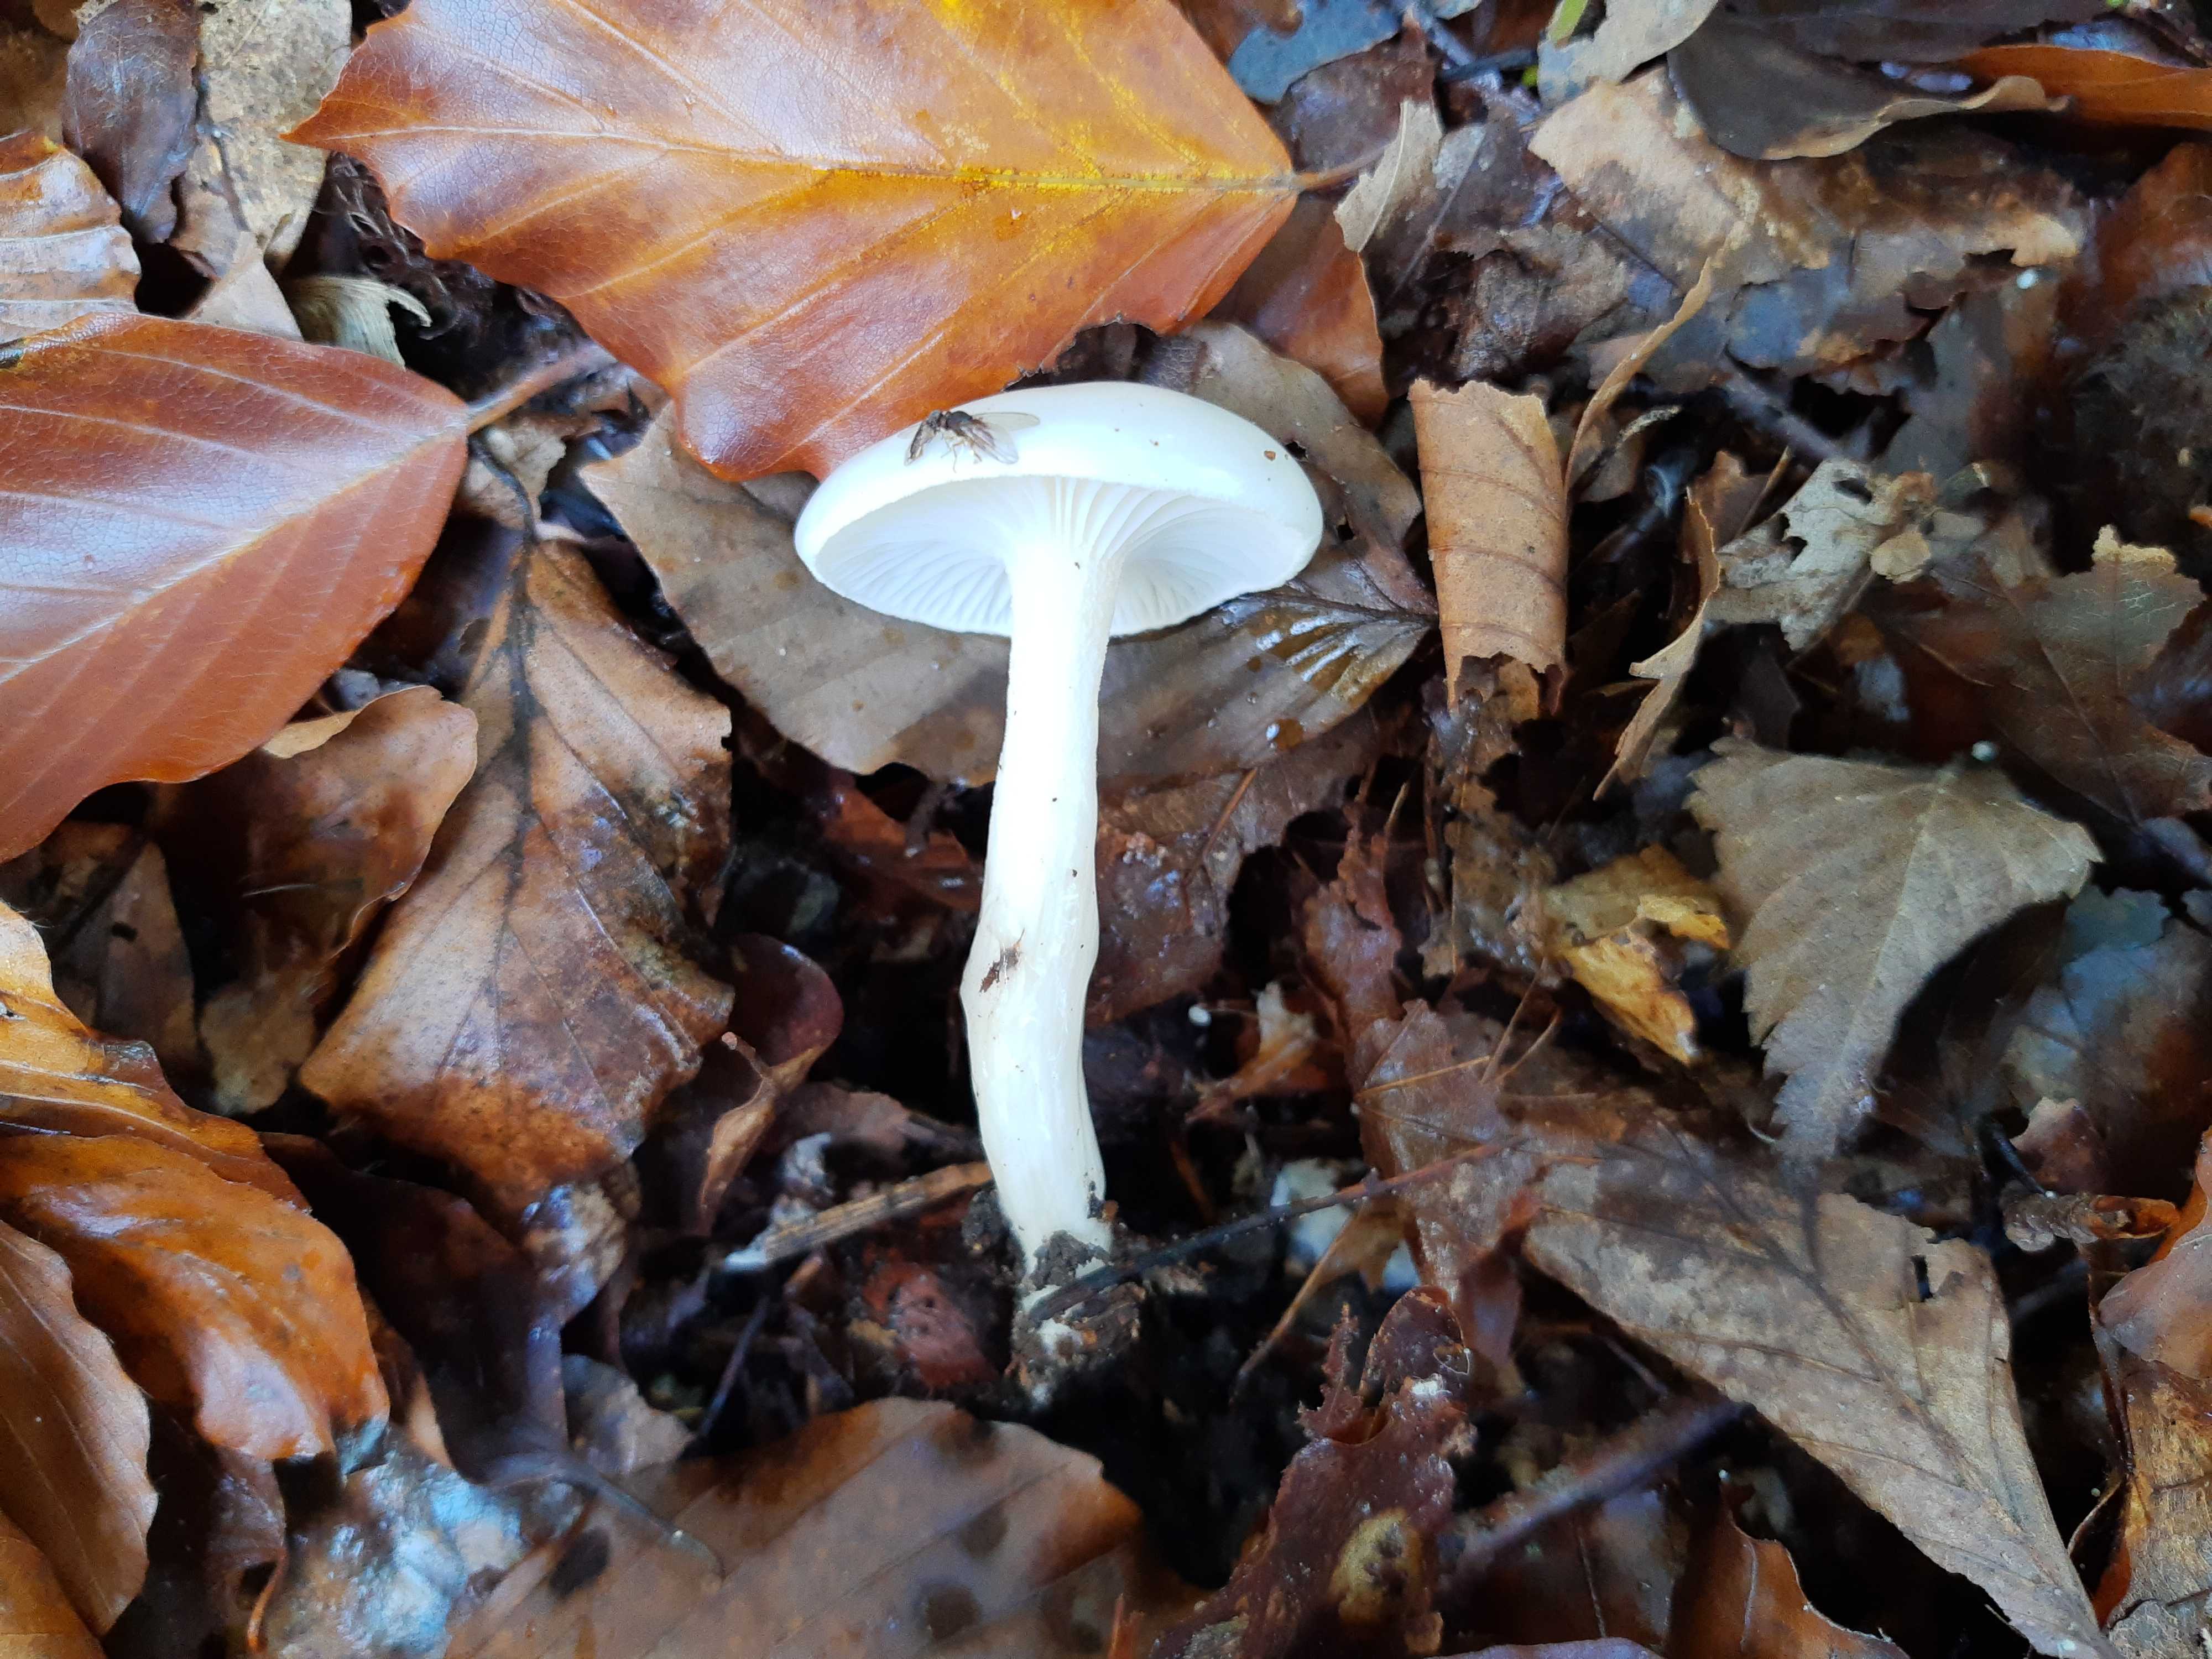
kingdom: Fungi
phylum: Basidiomycota
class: Agaricomycetes
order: Agaricales
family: Hygrophoraceae
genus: Hygrophorus
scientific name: Hygrophorus eburneus
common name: elfenbens-sneglehat
